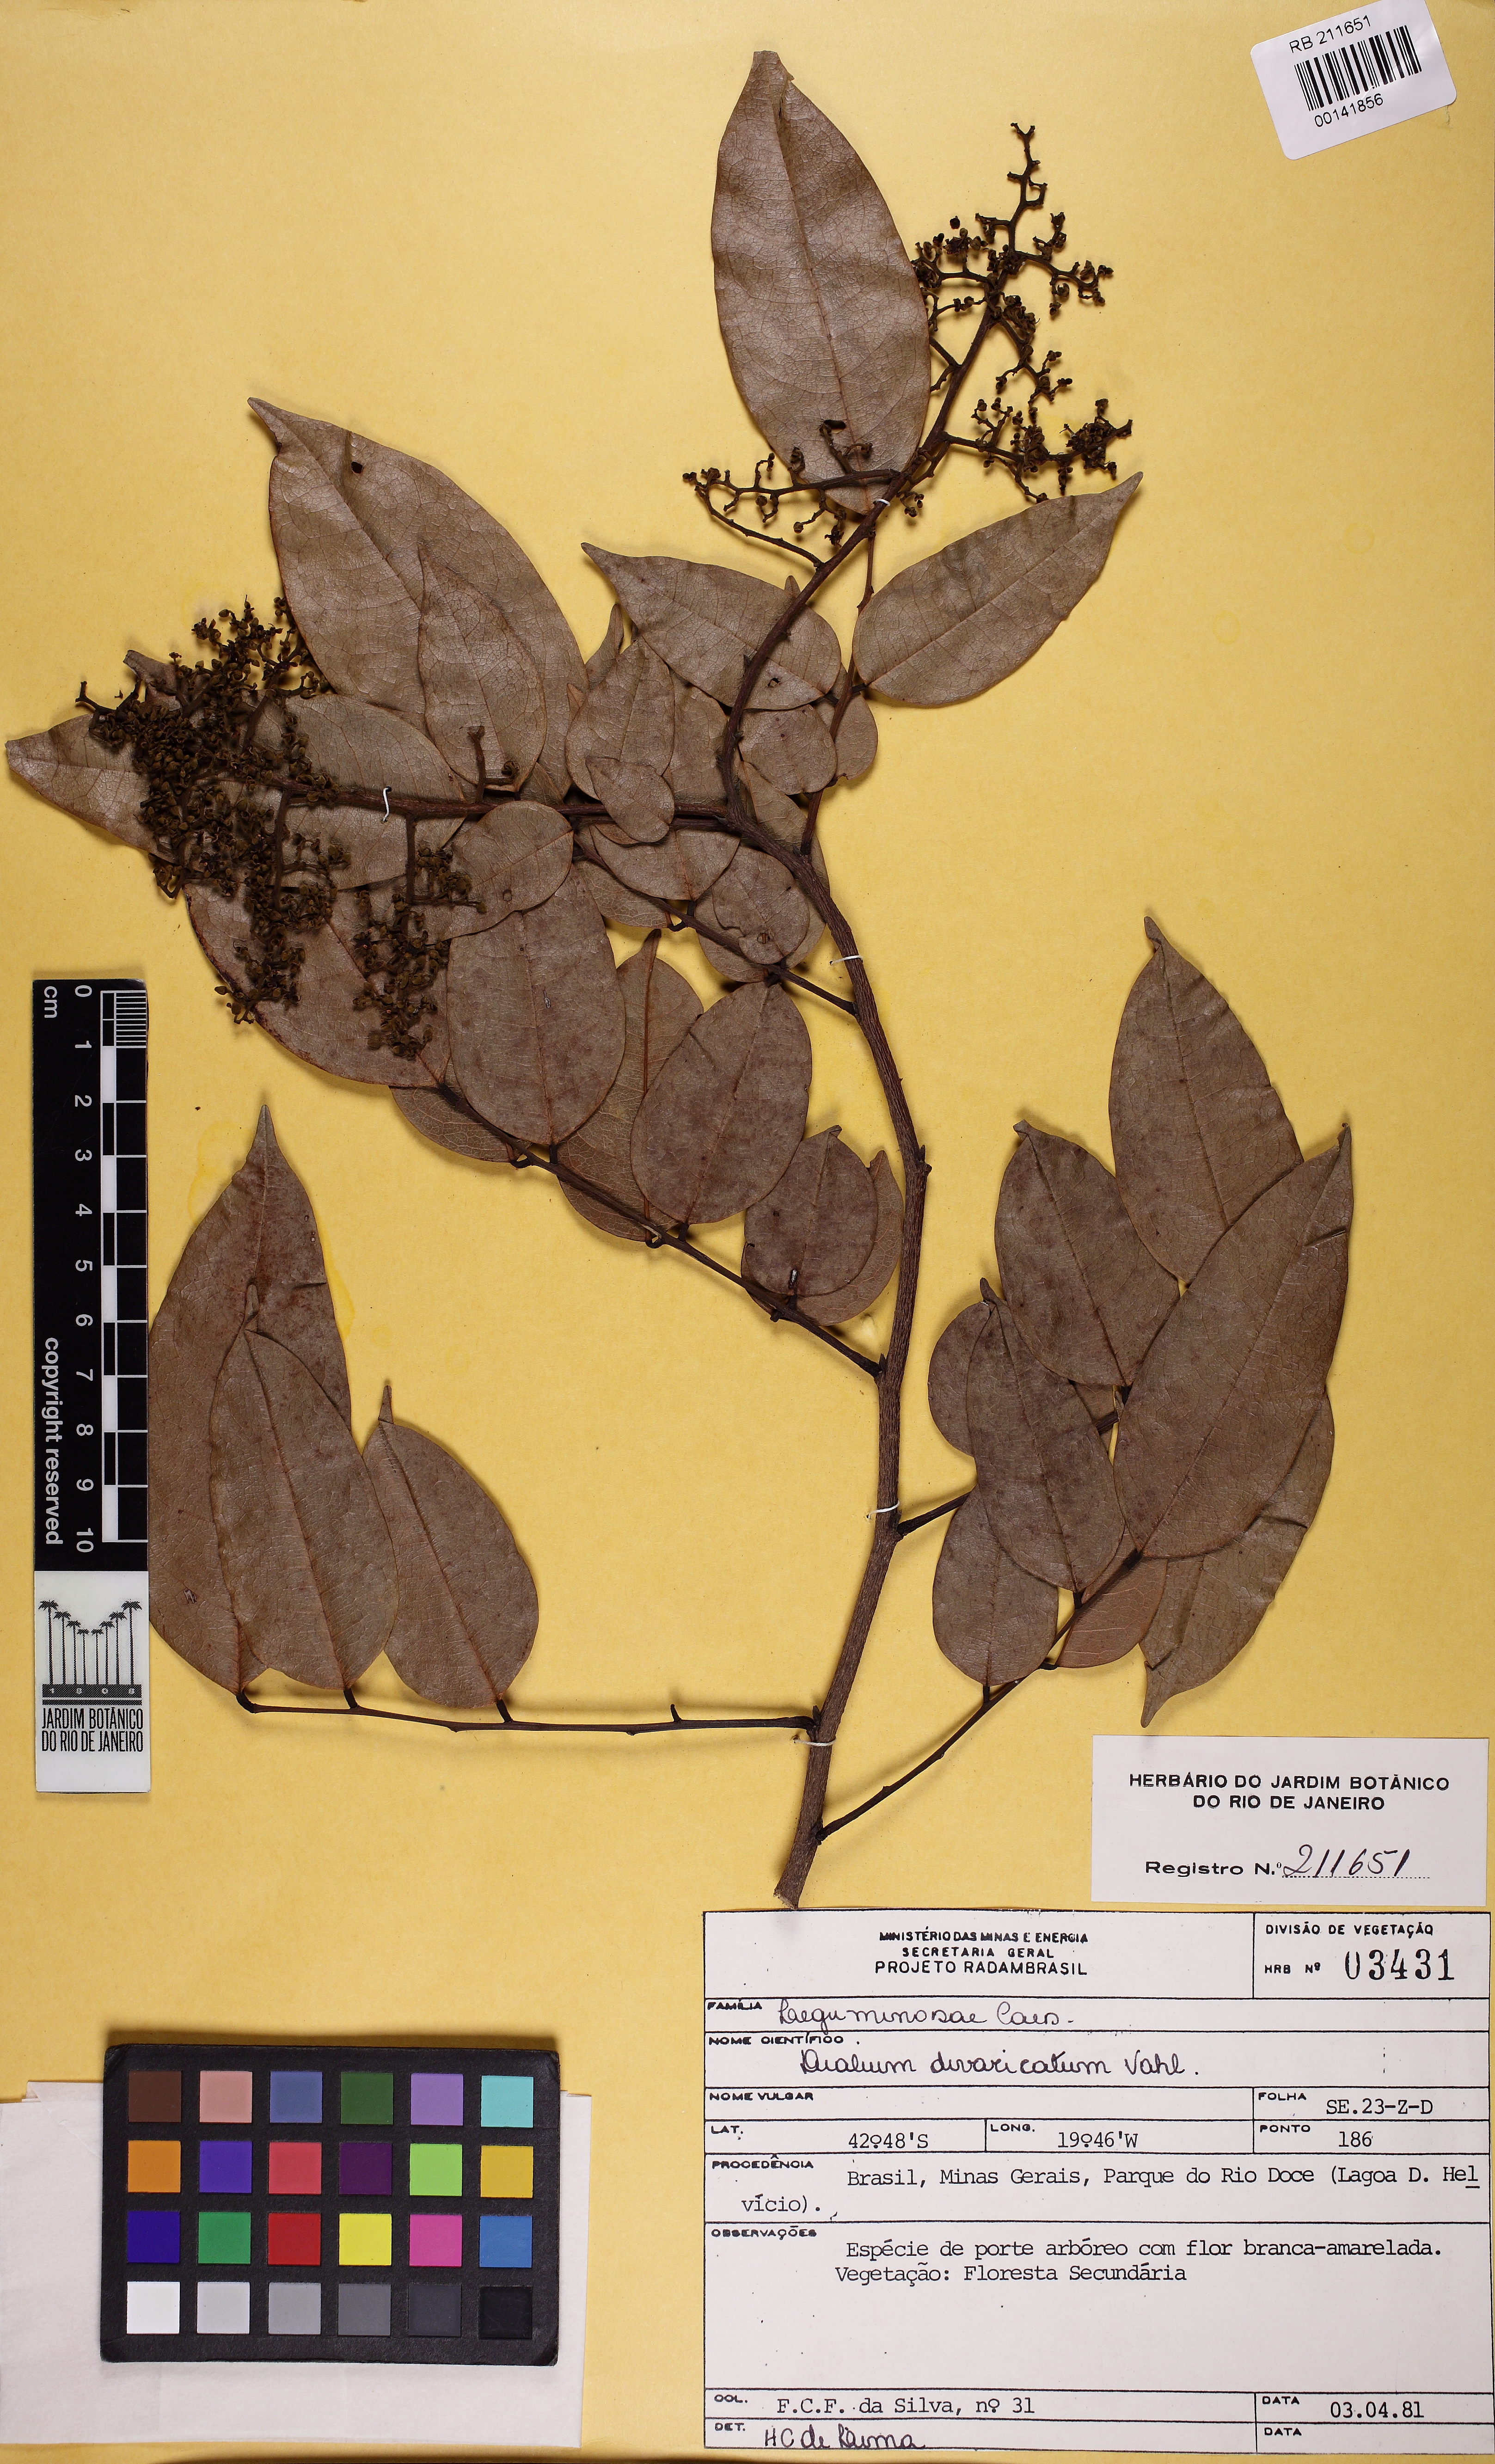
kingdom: Plantae
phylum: Tracheophyta
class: Magnoliopsida
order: Fabales
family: Fabaceae
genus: Dialium
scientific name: Dialium guianense
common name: Ironwood
